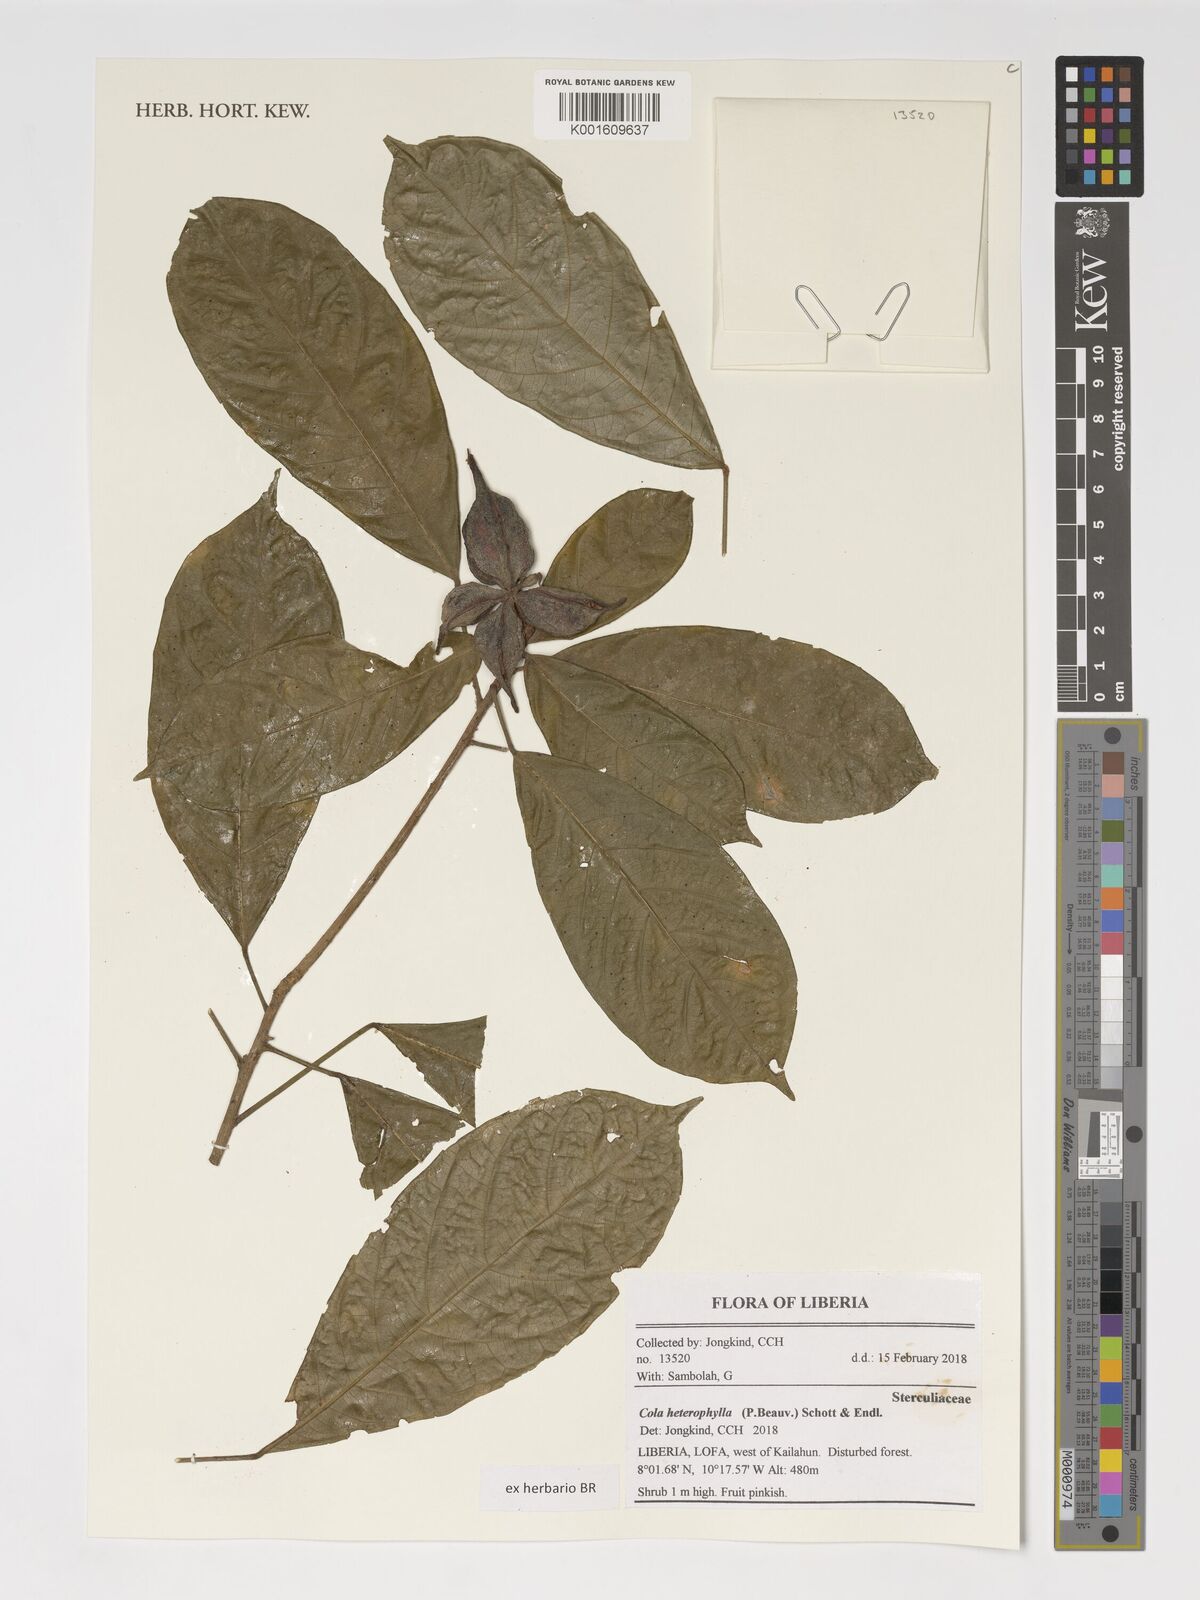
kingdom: Plantae
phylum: Tracheophyta
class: Magnoliopsida
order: Malvales
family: Malvaceae
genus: Cola
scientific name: Cola heterophylla
